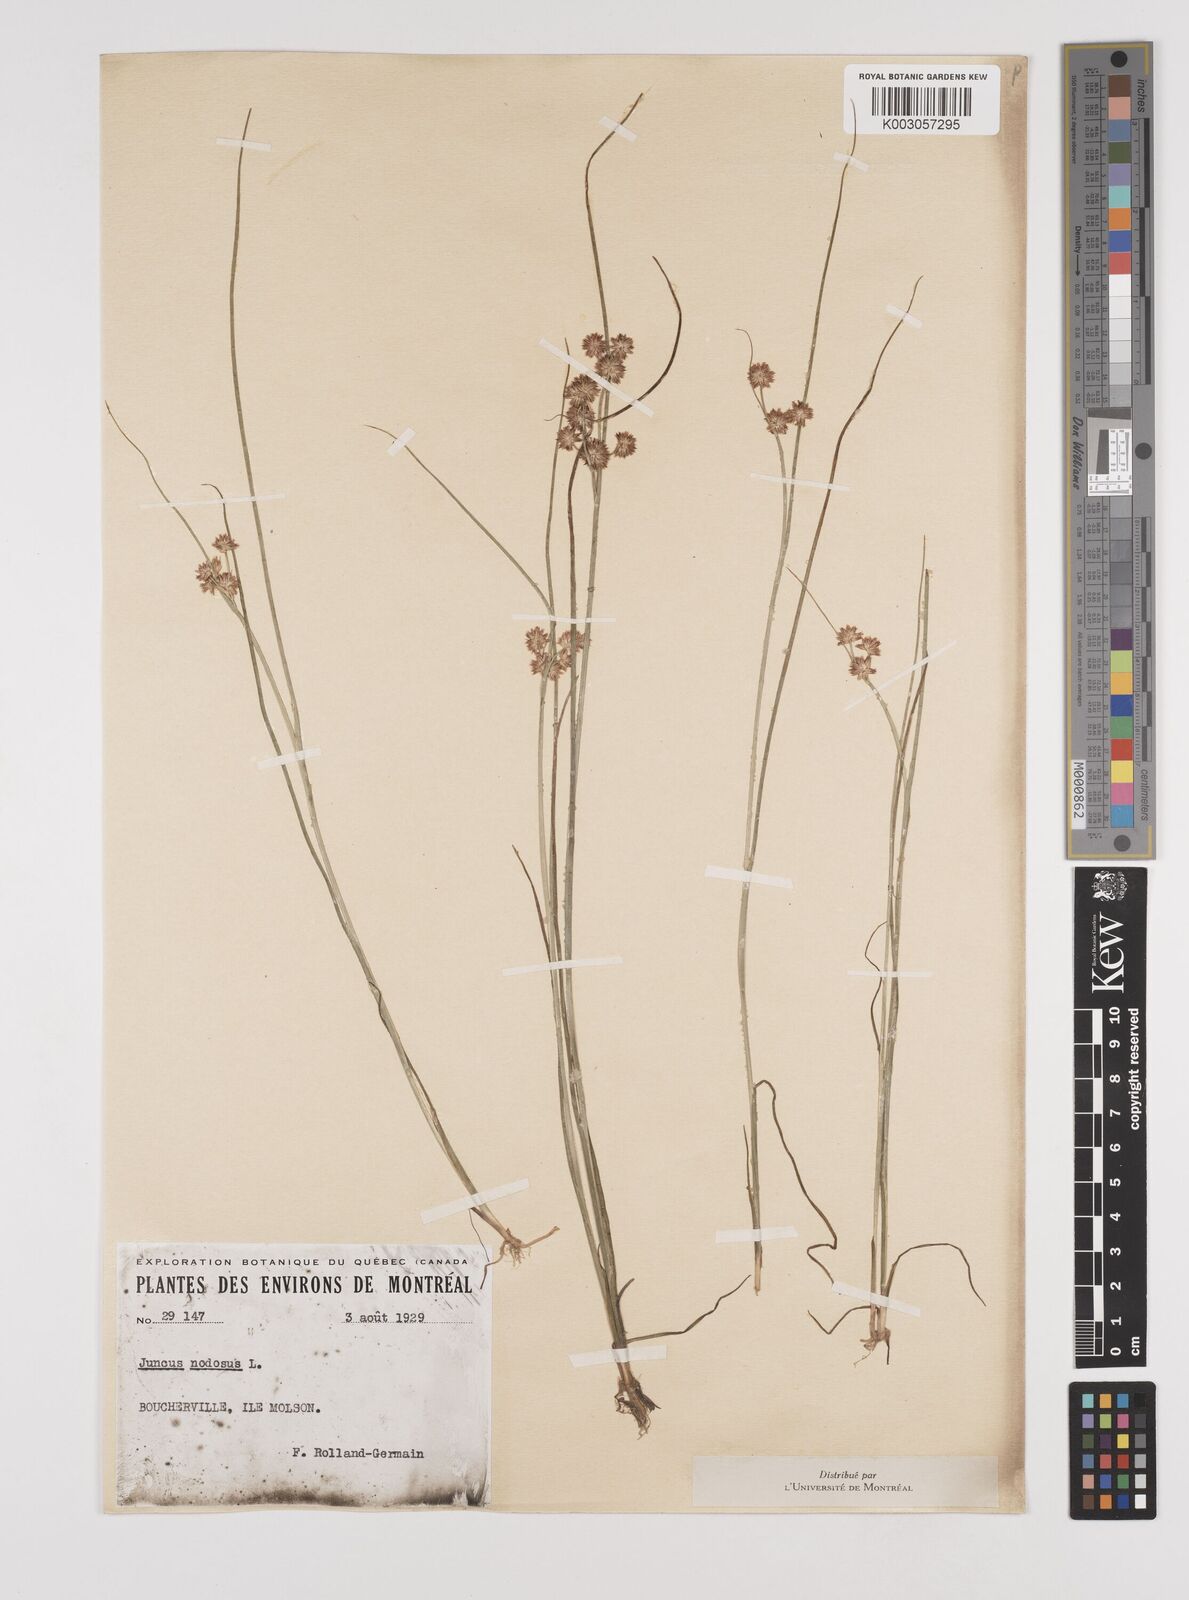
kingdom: Plantae
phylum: Tracheophyta
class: Liliopsida
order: Poales
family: Juncaceae
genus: Juncus
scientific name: Juncus nodosus
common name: Knotted rush
